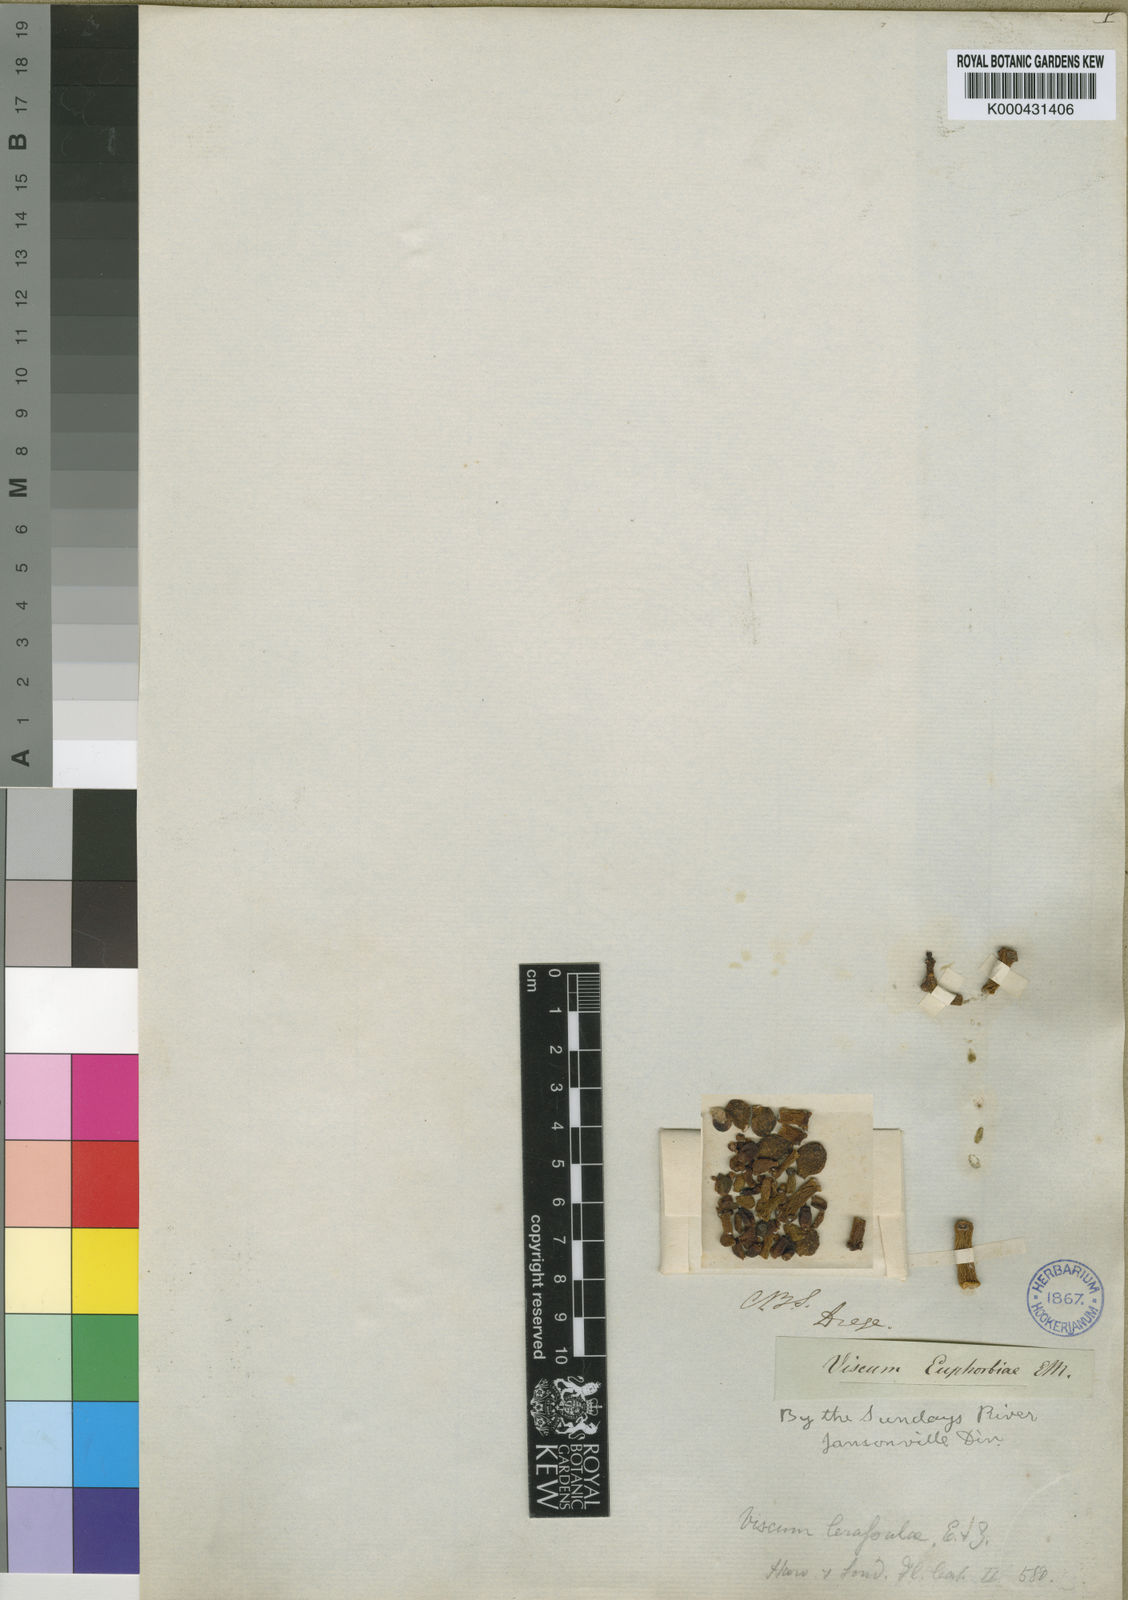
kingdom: Plantae
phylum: Tracheophyta
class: Magnoliopsida
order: Santalales
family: Viscaceae
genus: Viscum
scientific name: Viscum crassulae
